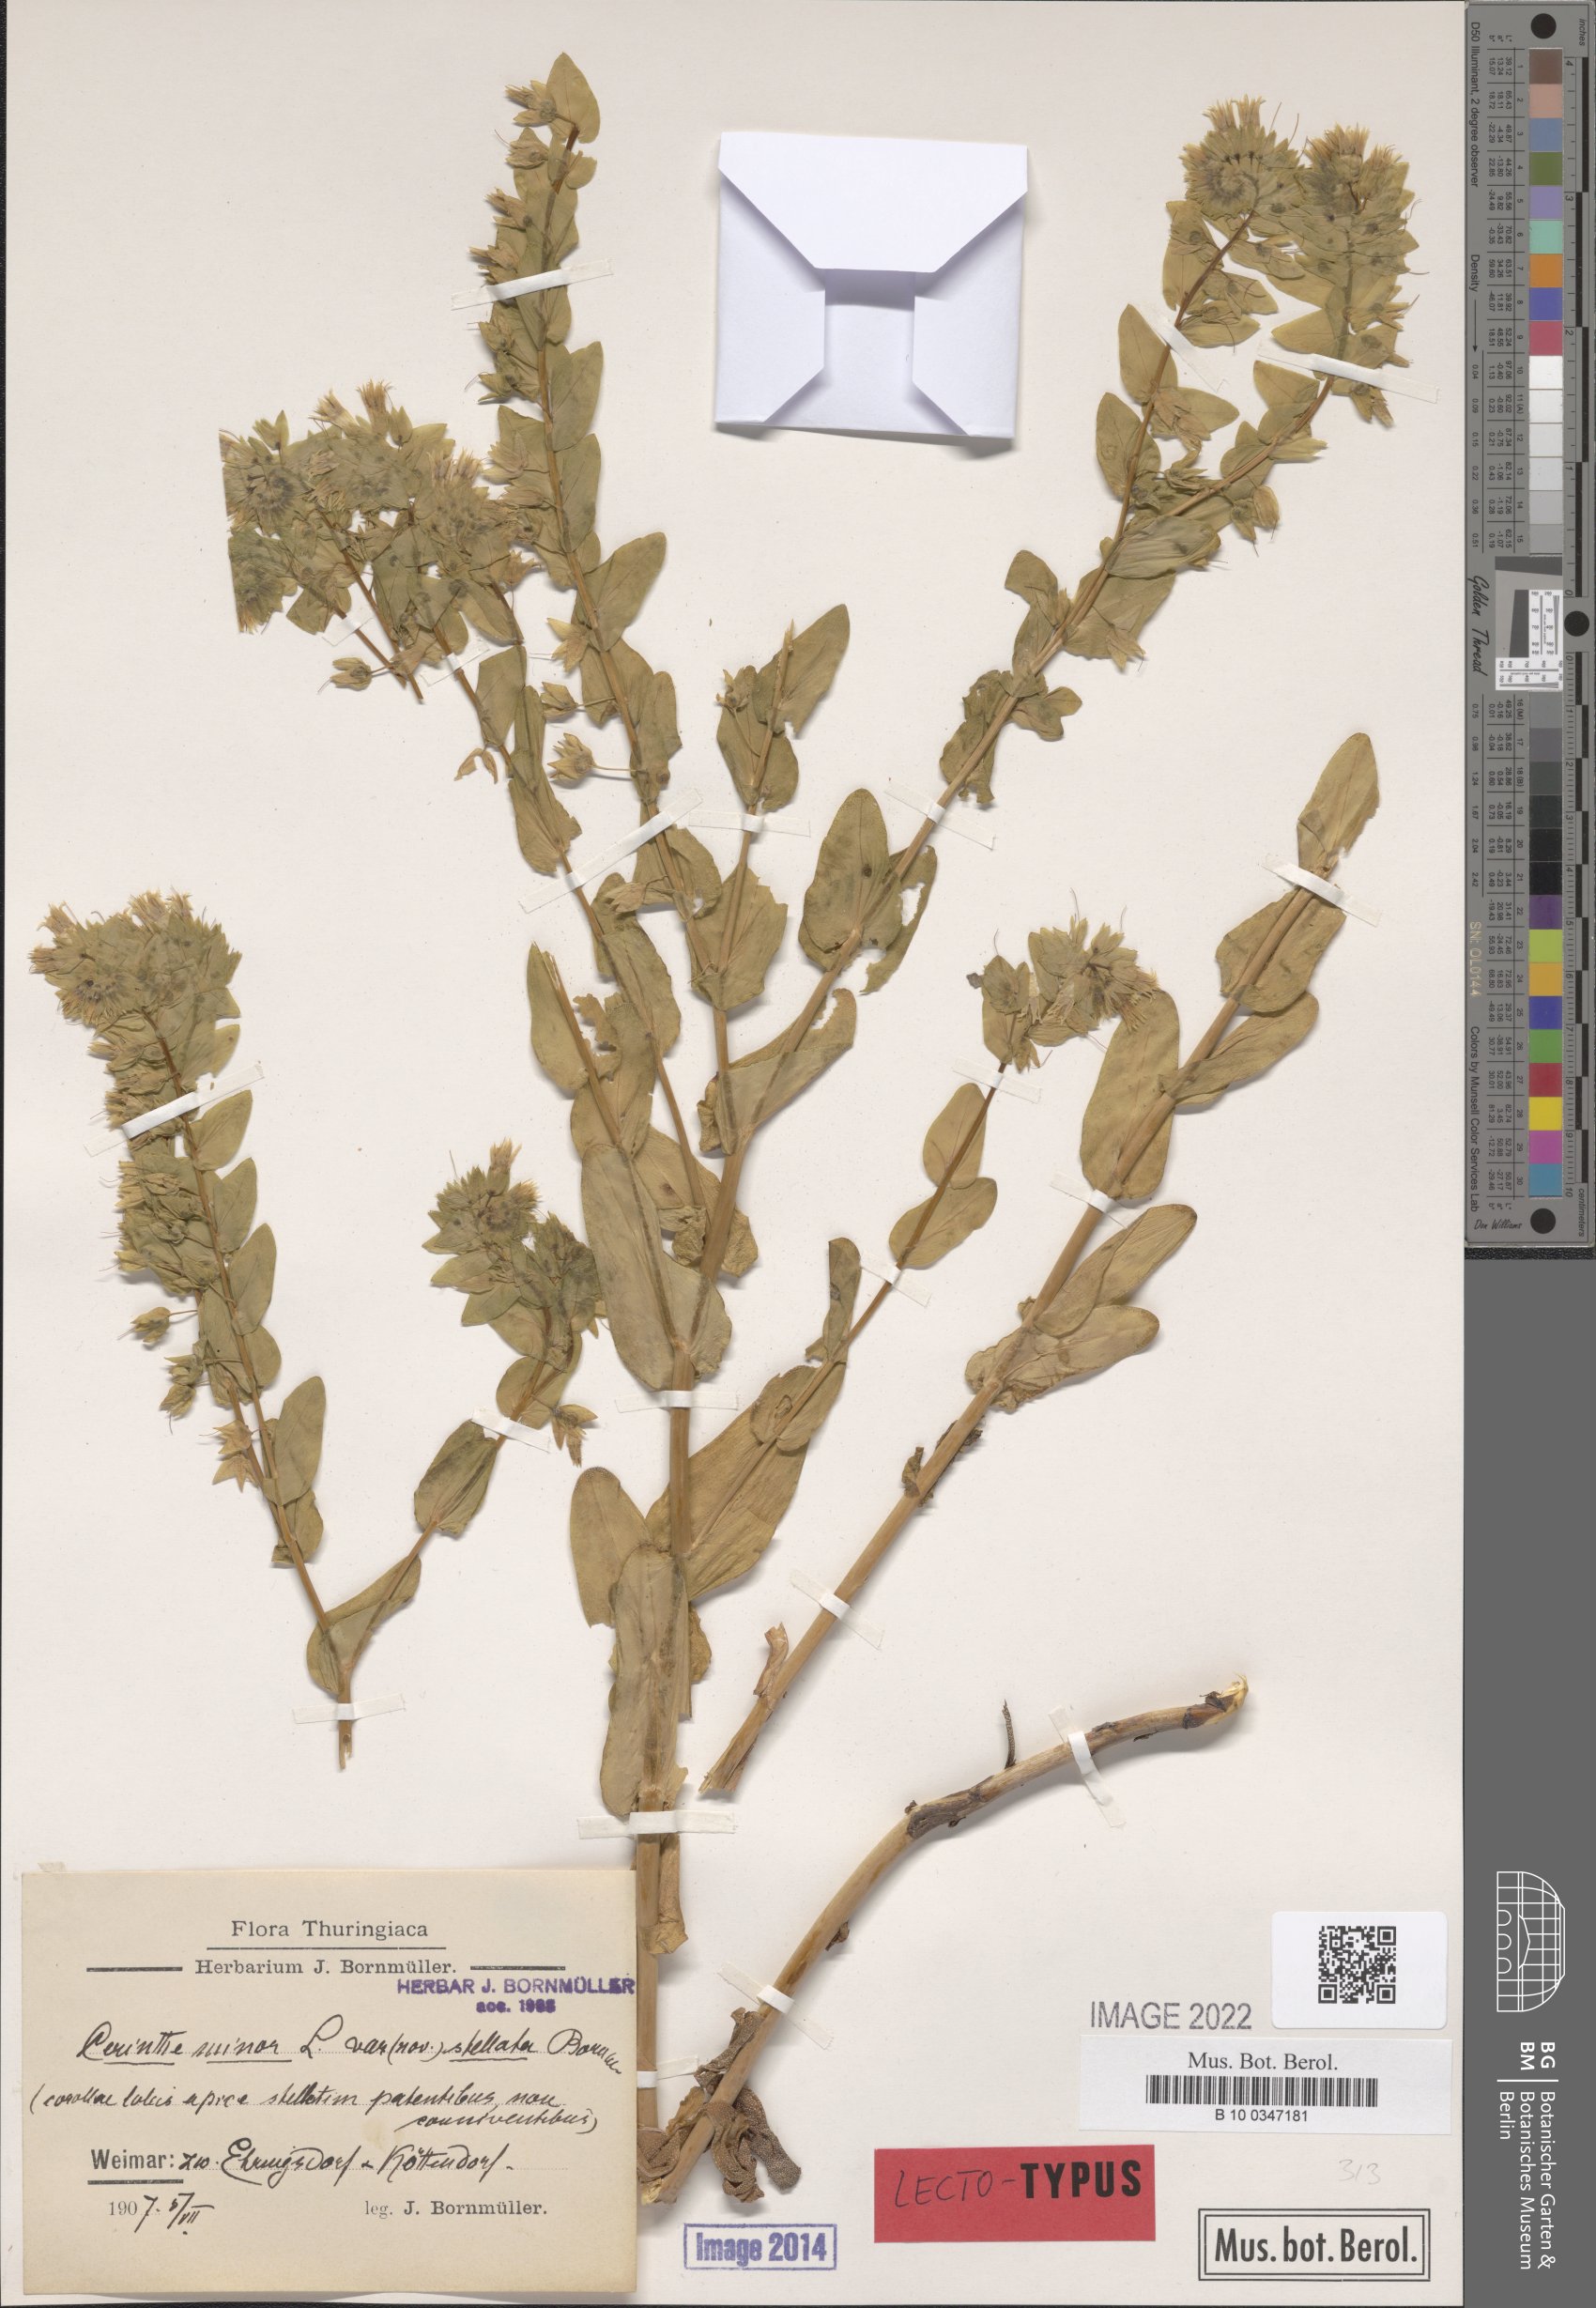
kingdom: Plantae
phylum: Tracheophyta
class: Magnoliopsida
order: Boraginales
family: Boraginaceae
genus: Cerinthe
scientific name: Cerinthe minor
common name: Lesser honeywort
